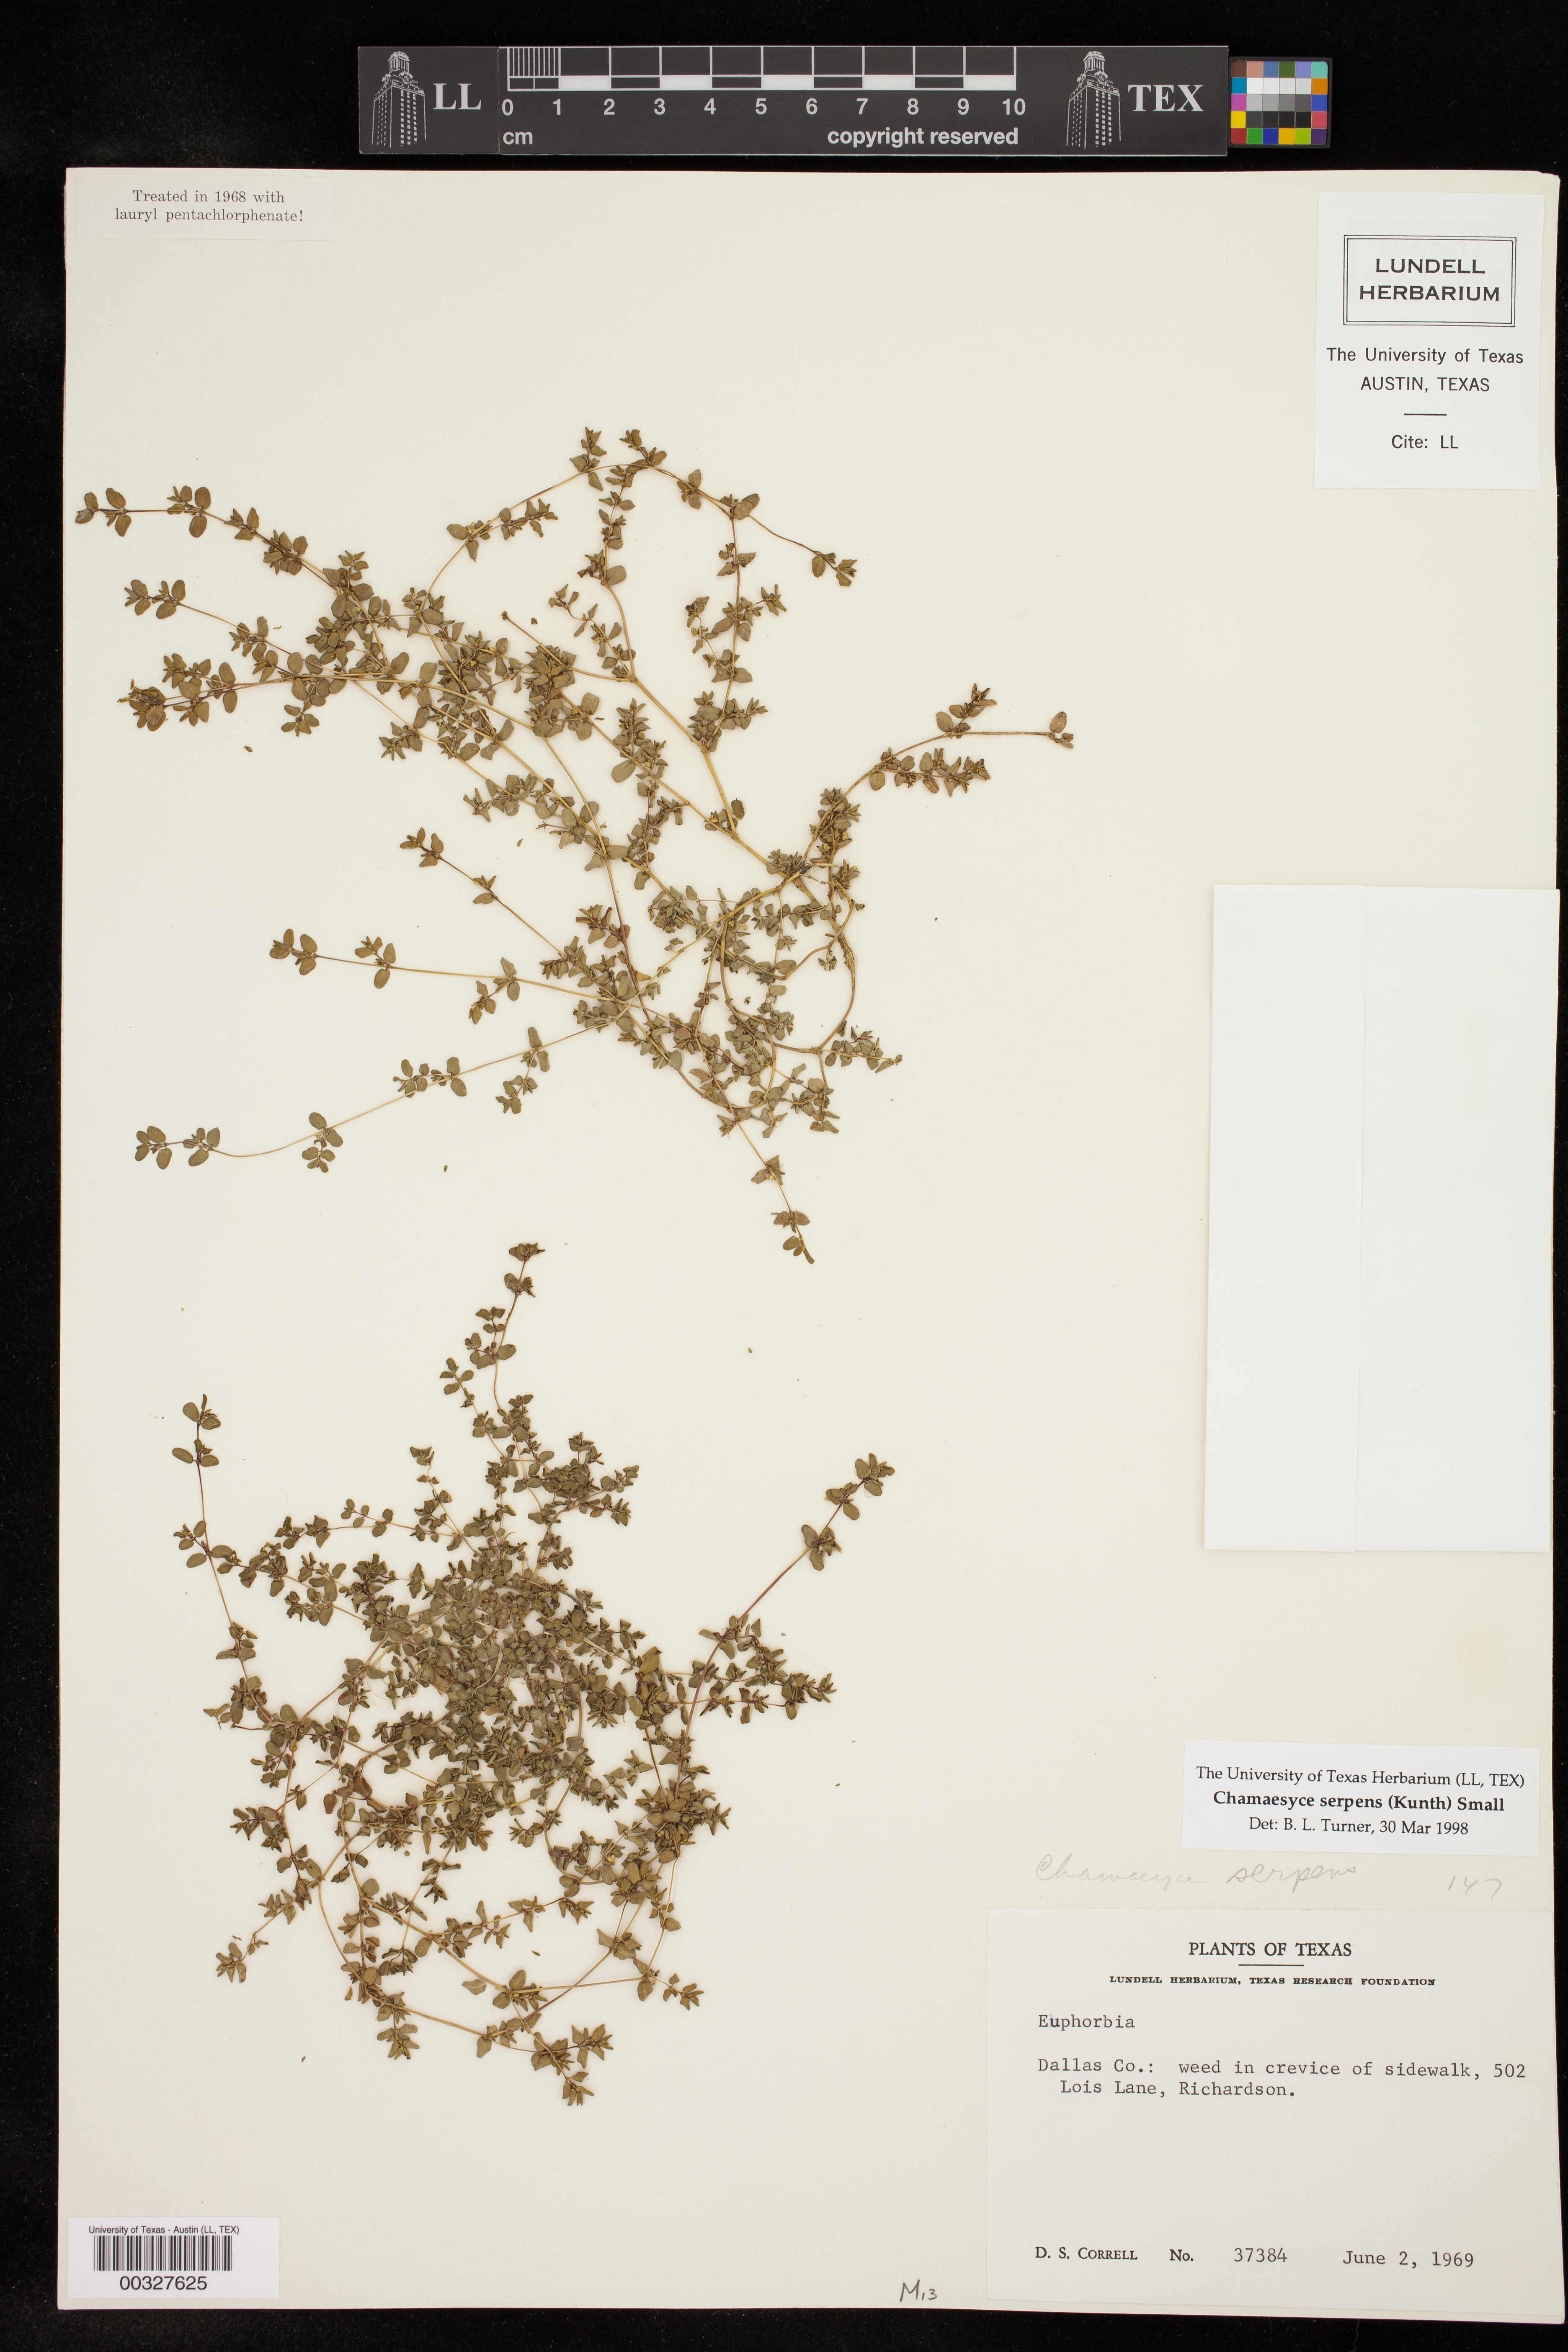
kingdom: Plantae
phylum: Tracheophyta
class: Magnoliopsida
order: Malpighiales
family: Euphorbiaceae
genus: Euphorbia
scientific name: Euphorbia serpens
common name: Matted sandmat
